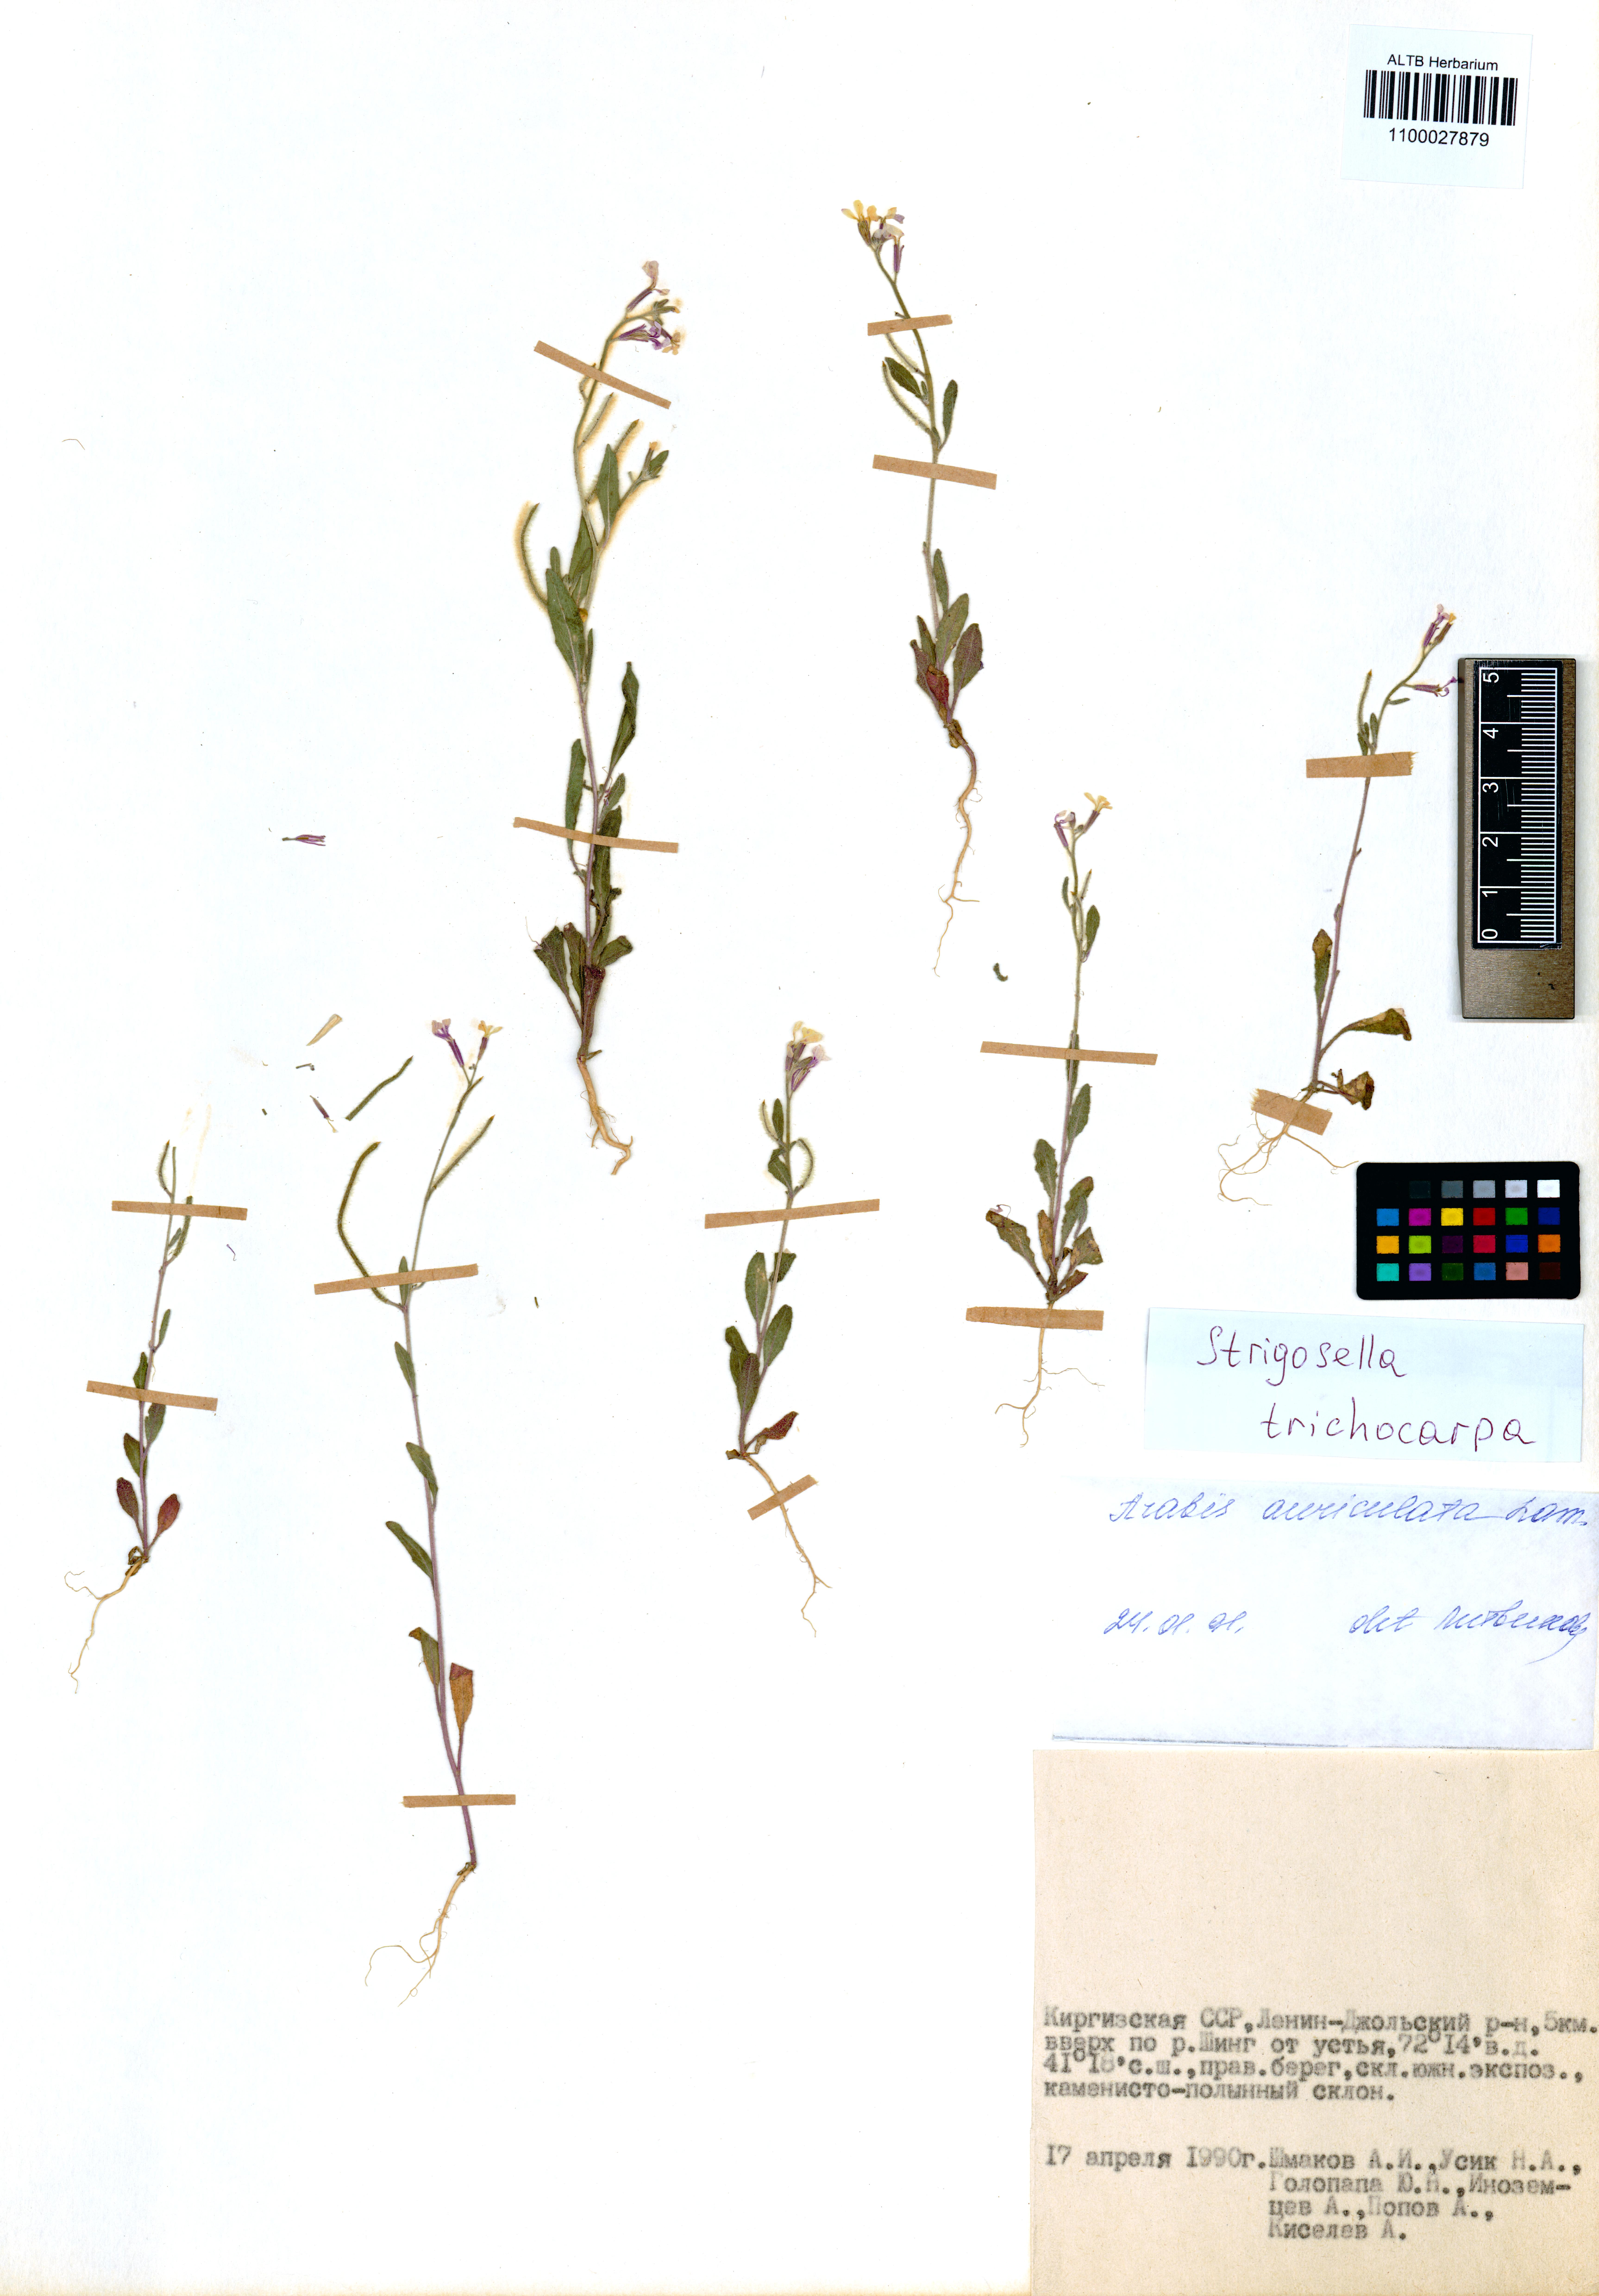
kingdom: Plantae
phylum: Tracheophyta
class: Magnoliopsida
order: Brassicales
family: Brassicaceae
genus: Strigosella
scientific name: Strigosella trichocarpa
